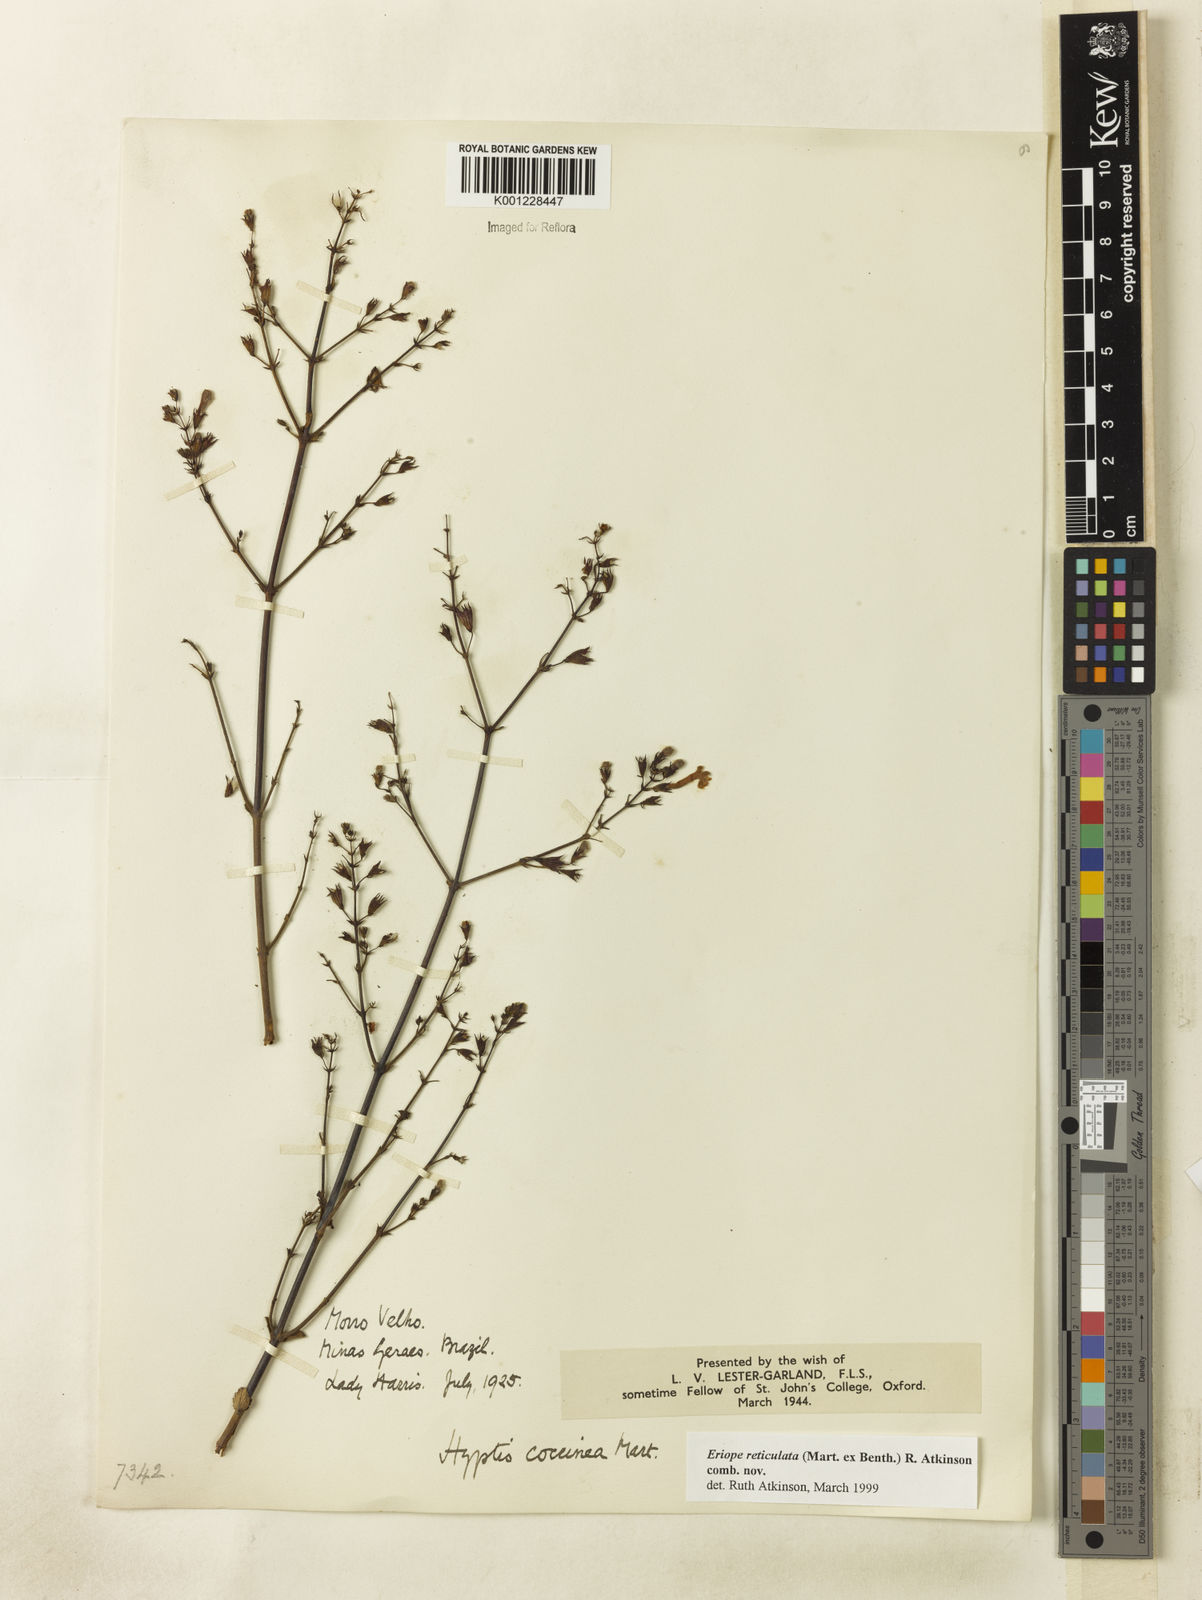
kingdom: Plantae
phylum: Tracheophyta
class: Magnoliopsida
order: Lamiales
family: Lamiaceae
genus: Hypenia
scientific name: Hypenia reticulata
